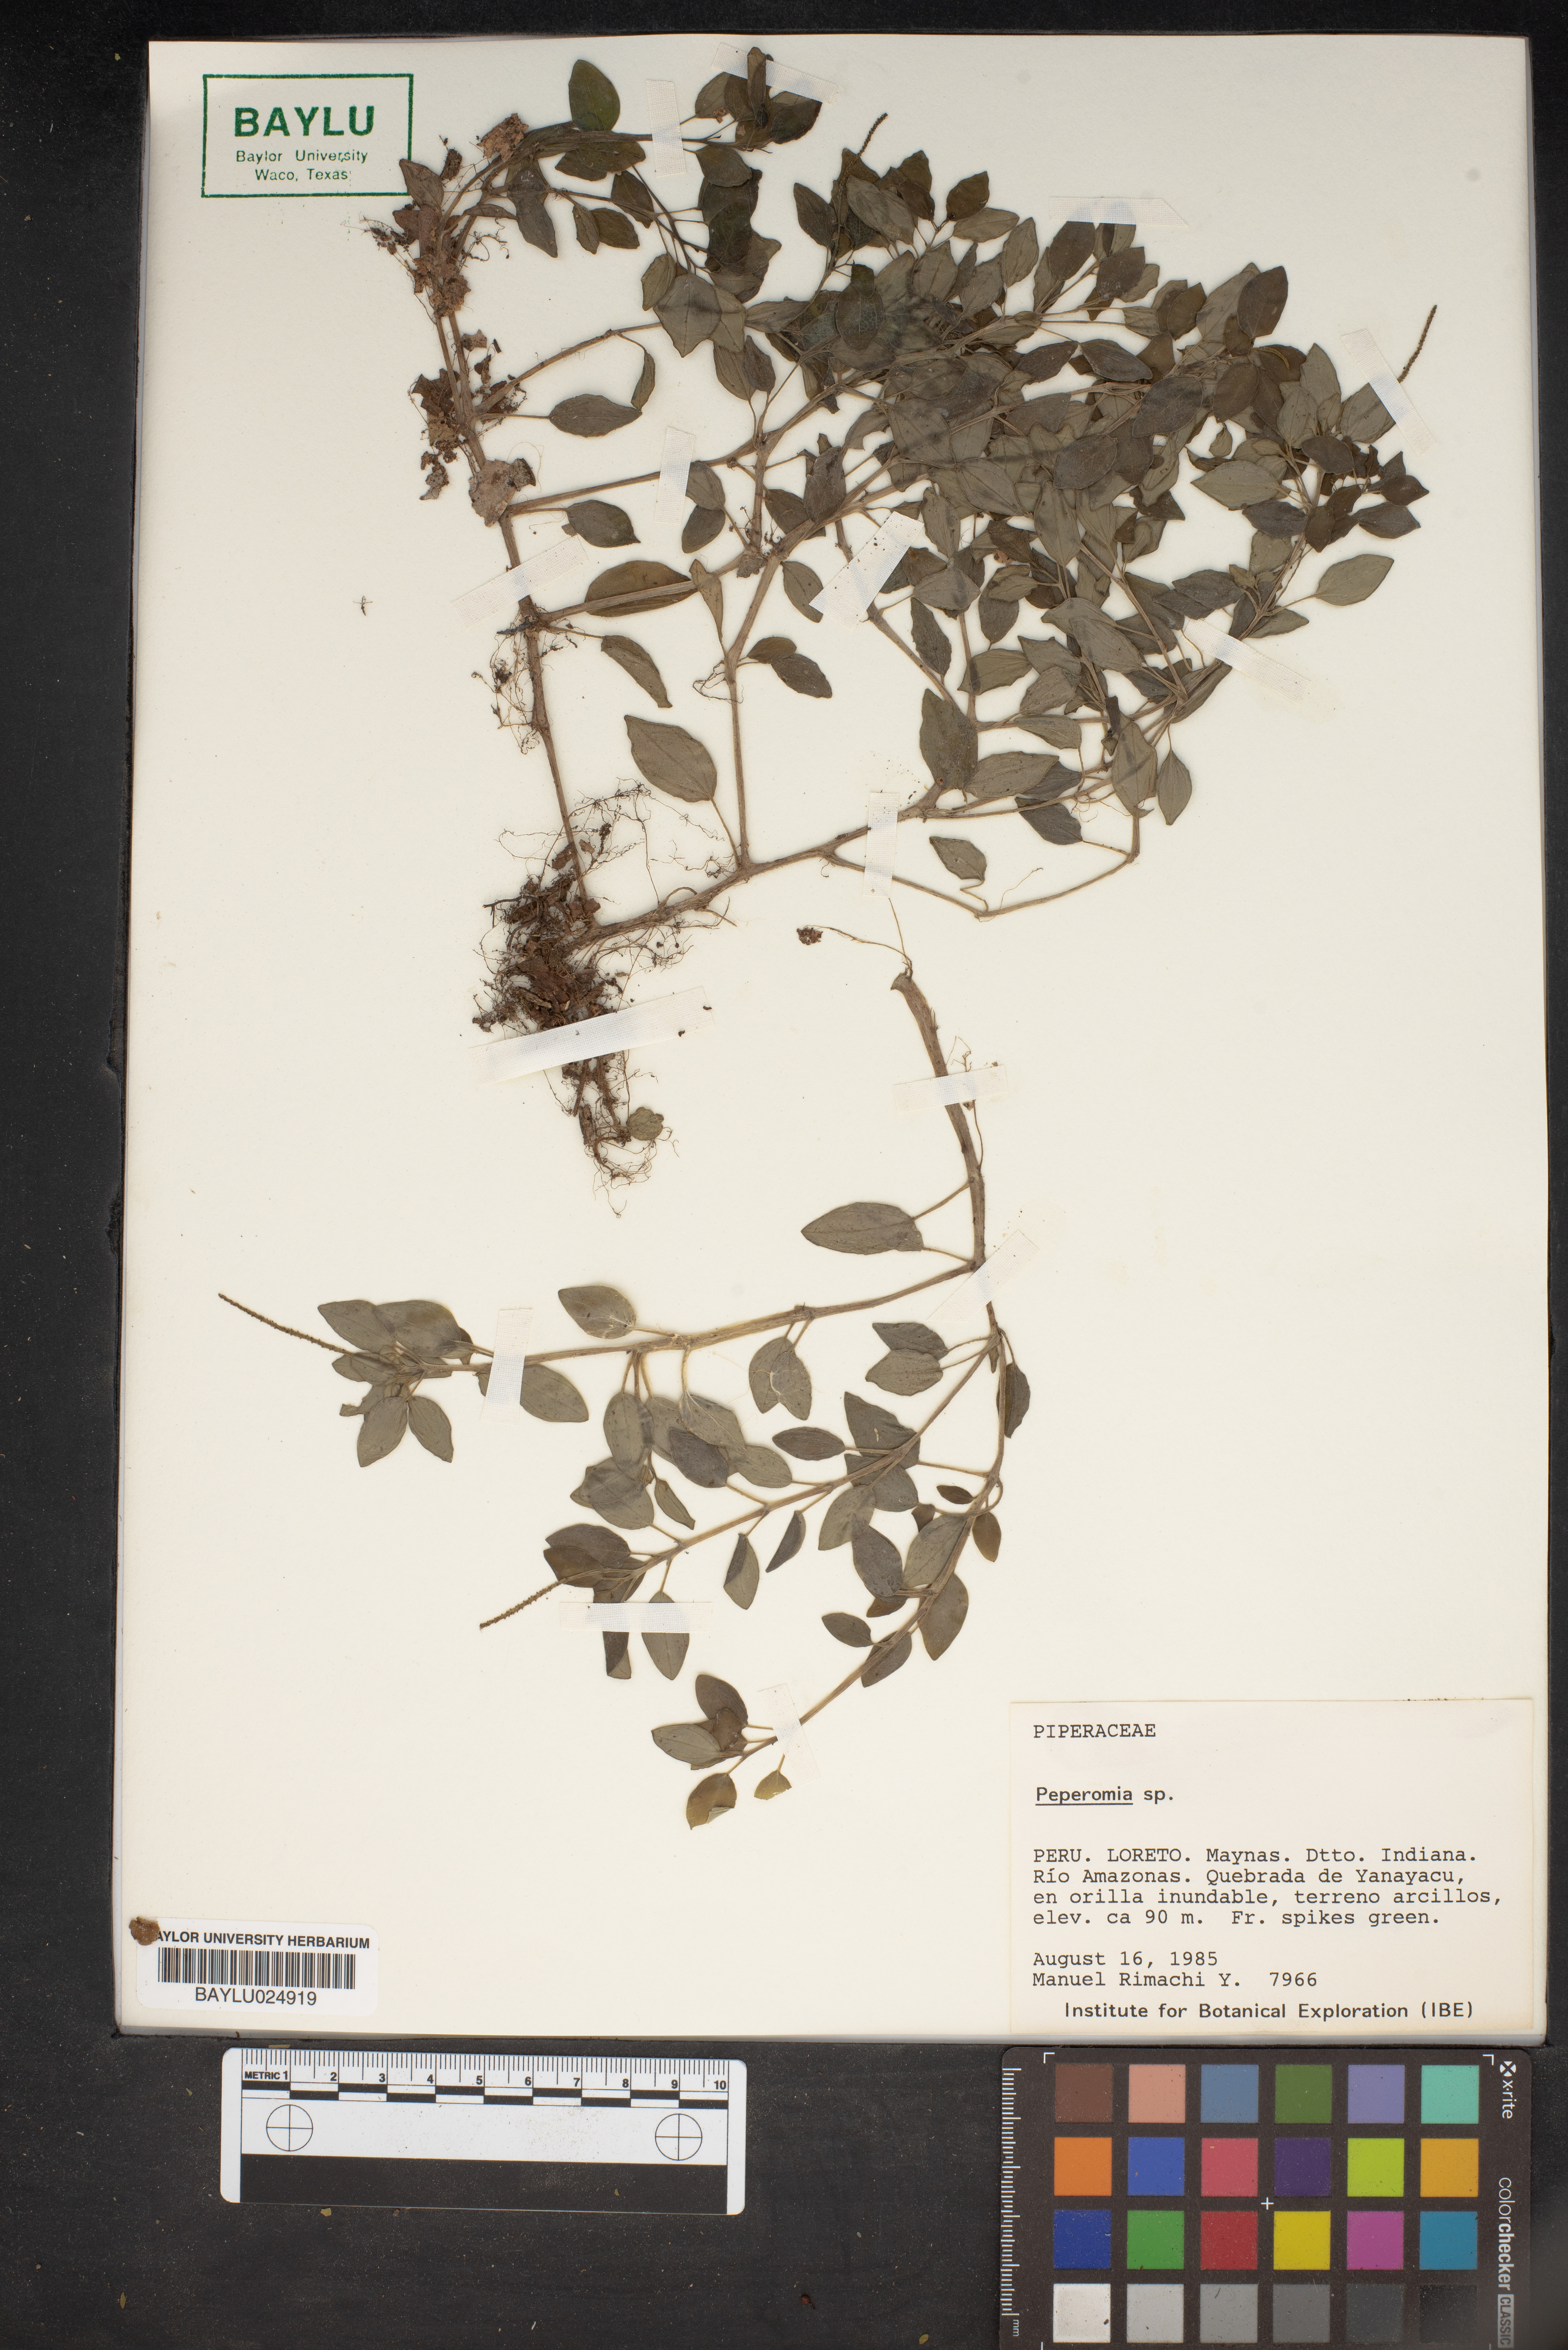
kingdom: Plantae
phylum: Tracheophyta
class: Magnoliopsida
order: Piperales
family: Piperaceae
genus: Peperomia
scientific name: Peperomia
